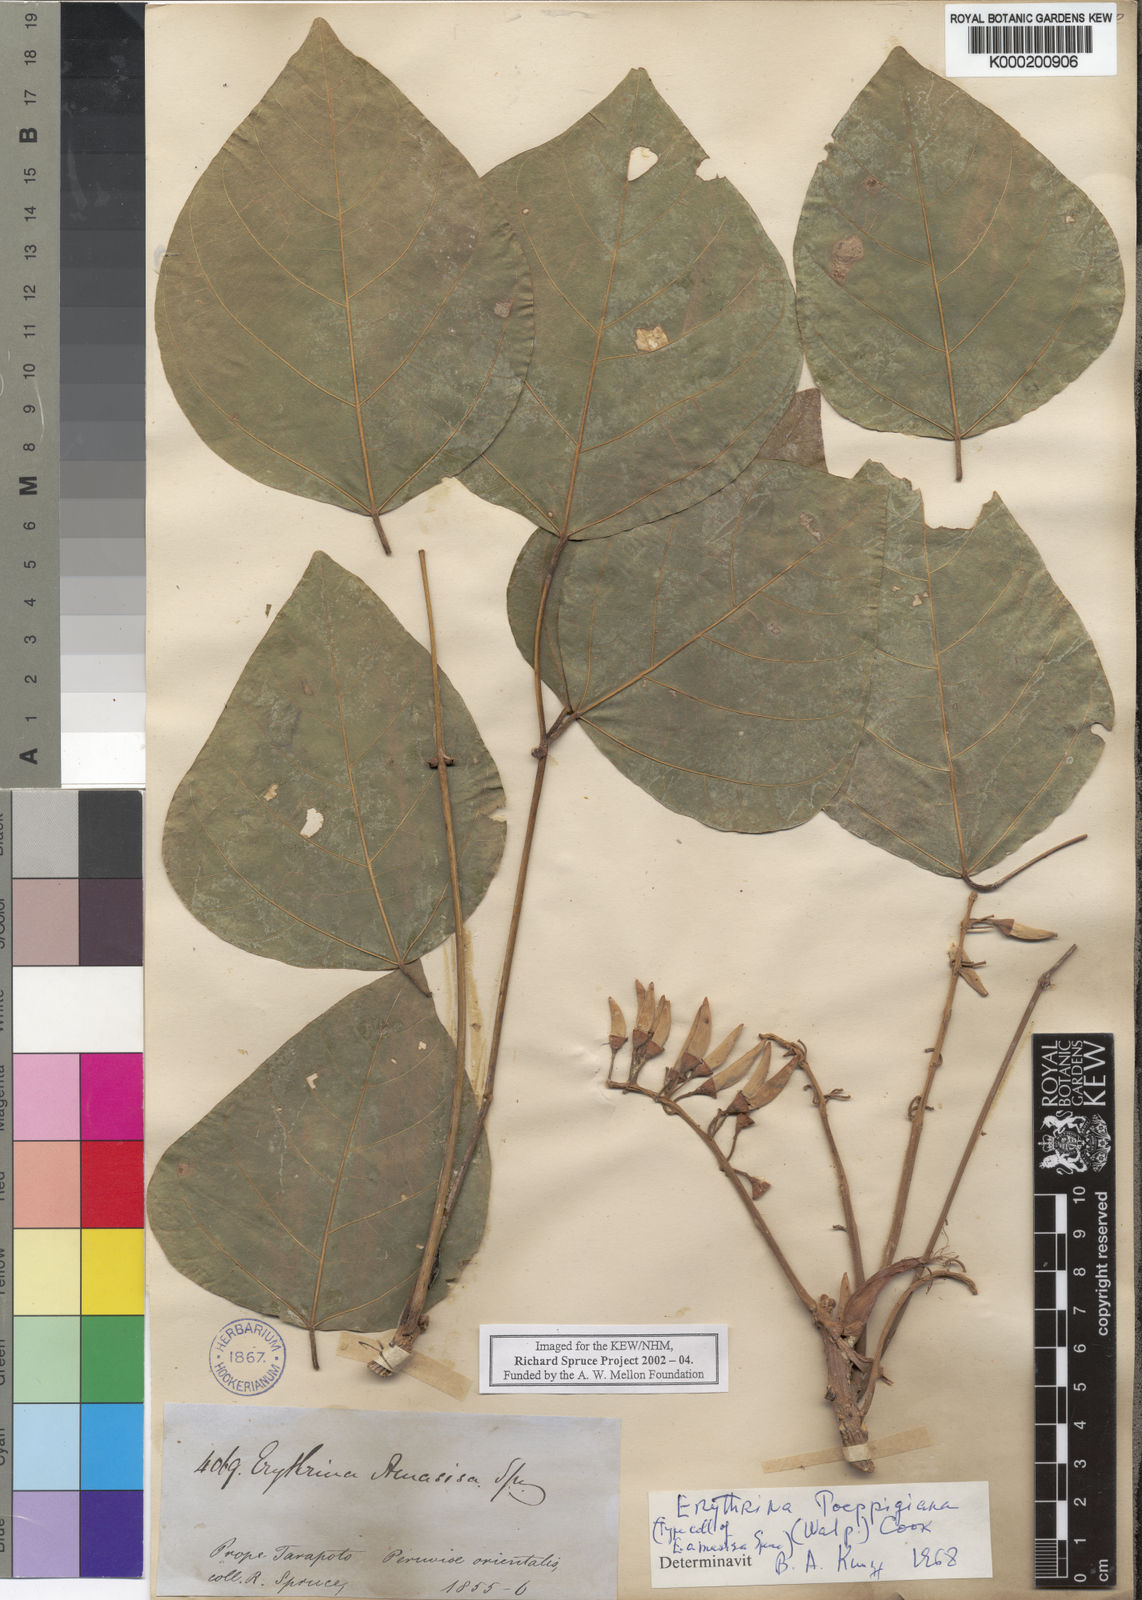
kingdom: Plantae
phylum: Tracheophyta
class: Magnoliopsida
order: Fabales
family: Fabaceae
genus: Erythrina
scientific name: Erythrina poeppigiana
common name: Coral tree
